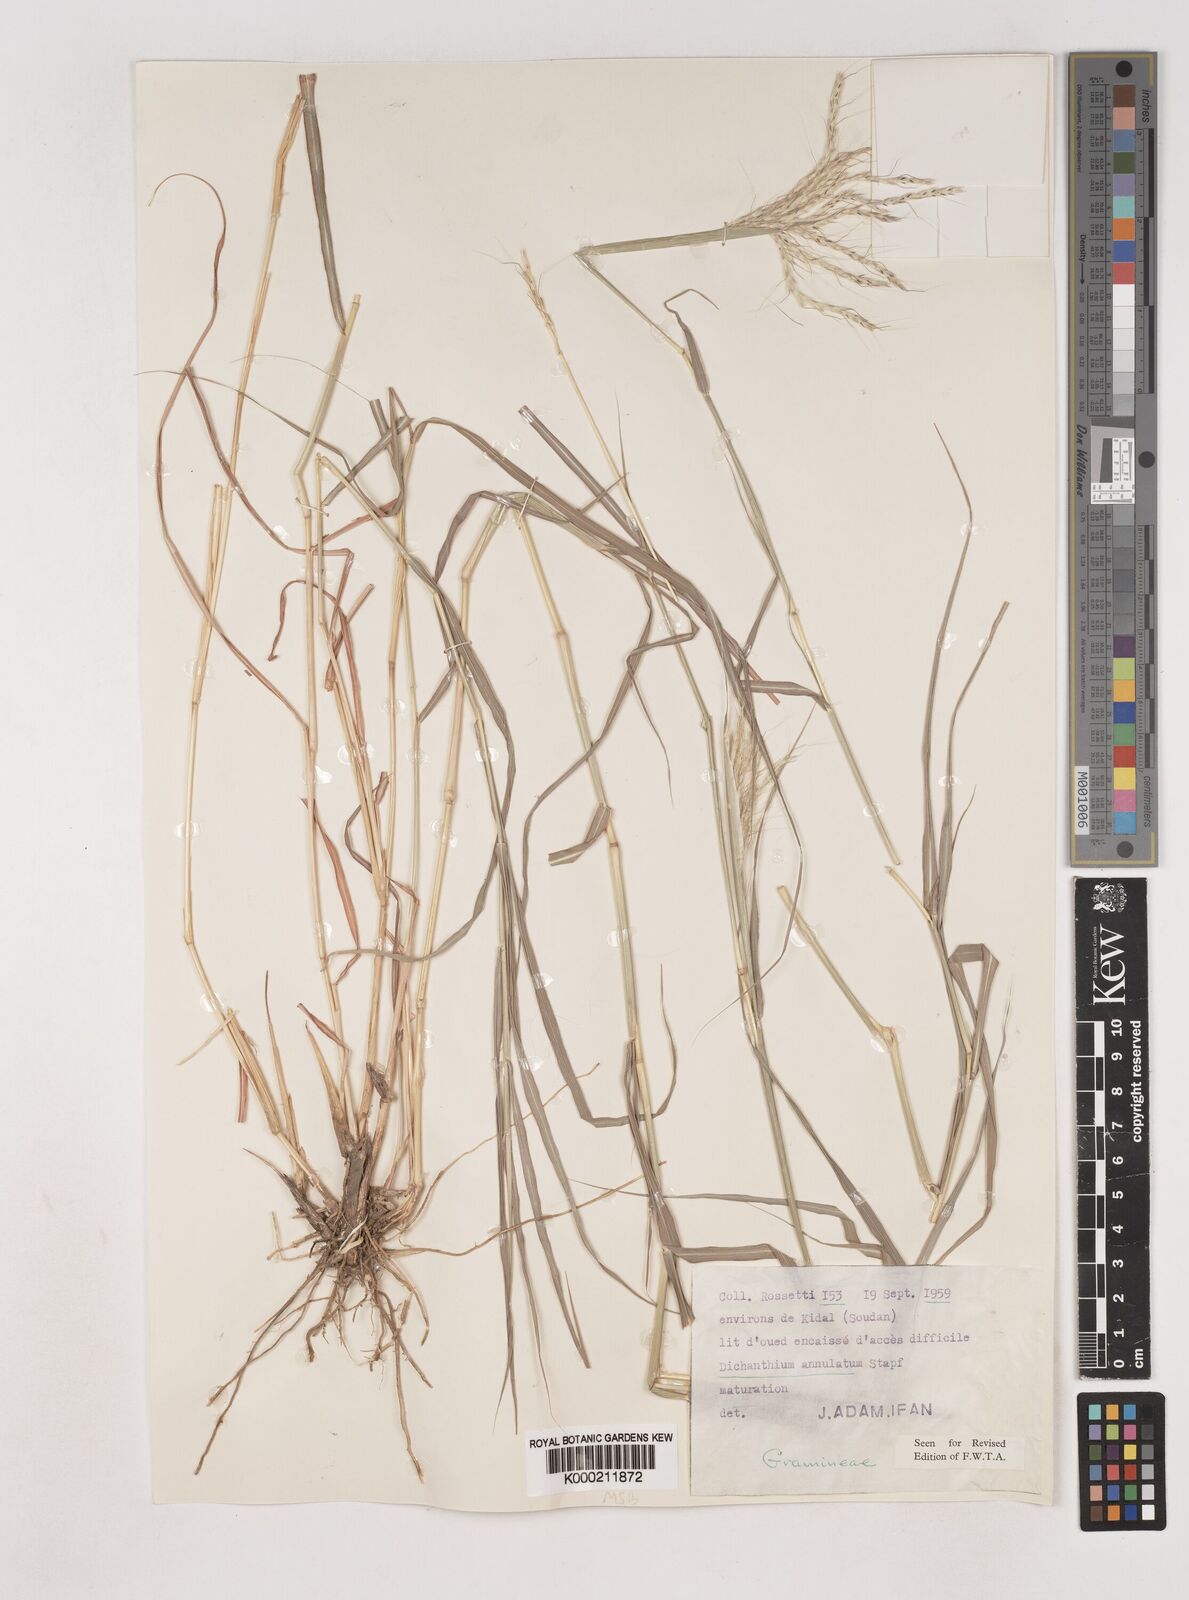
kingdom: Plantae
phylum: Tracheophyta
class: Liliopsida
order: Poales
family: Poaceae
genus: Dichanthium
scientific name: Dichanthium annulatum
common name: Kleberg's bluestem
